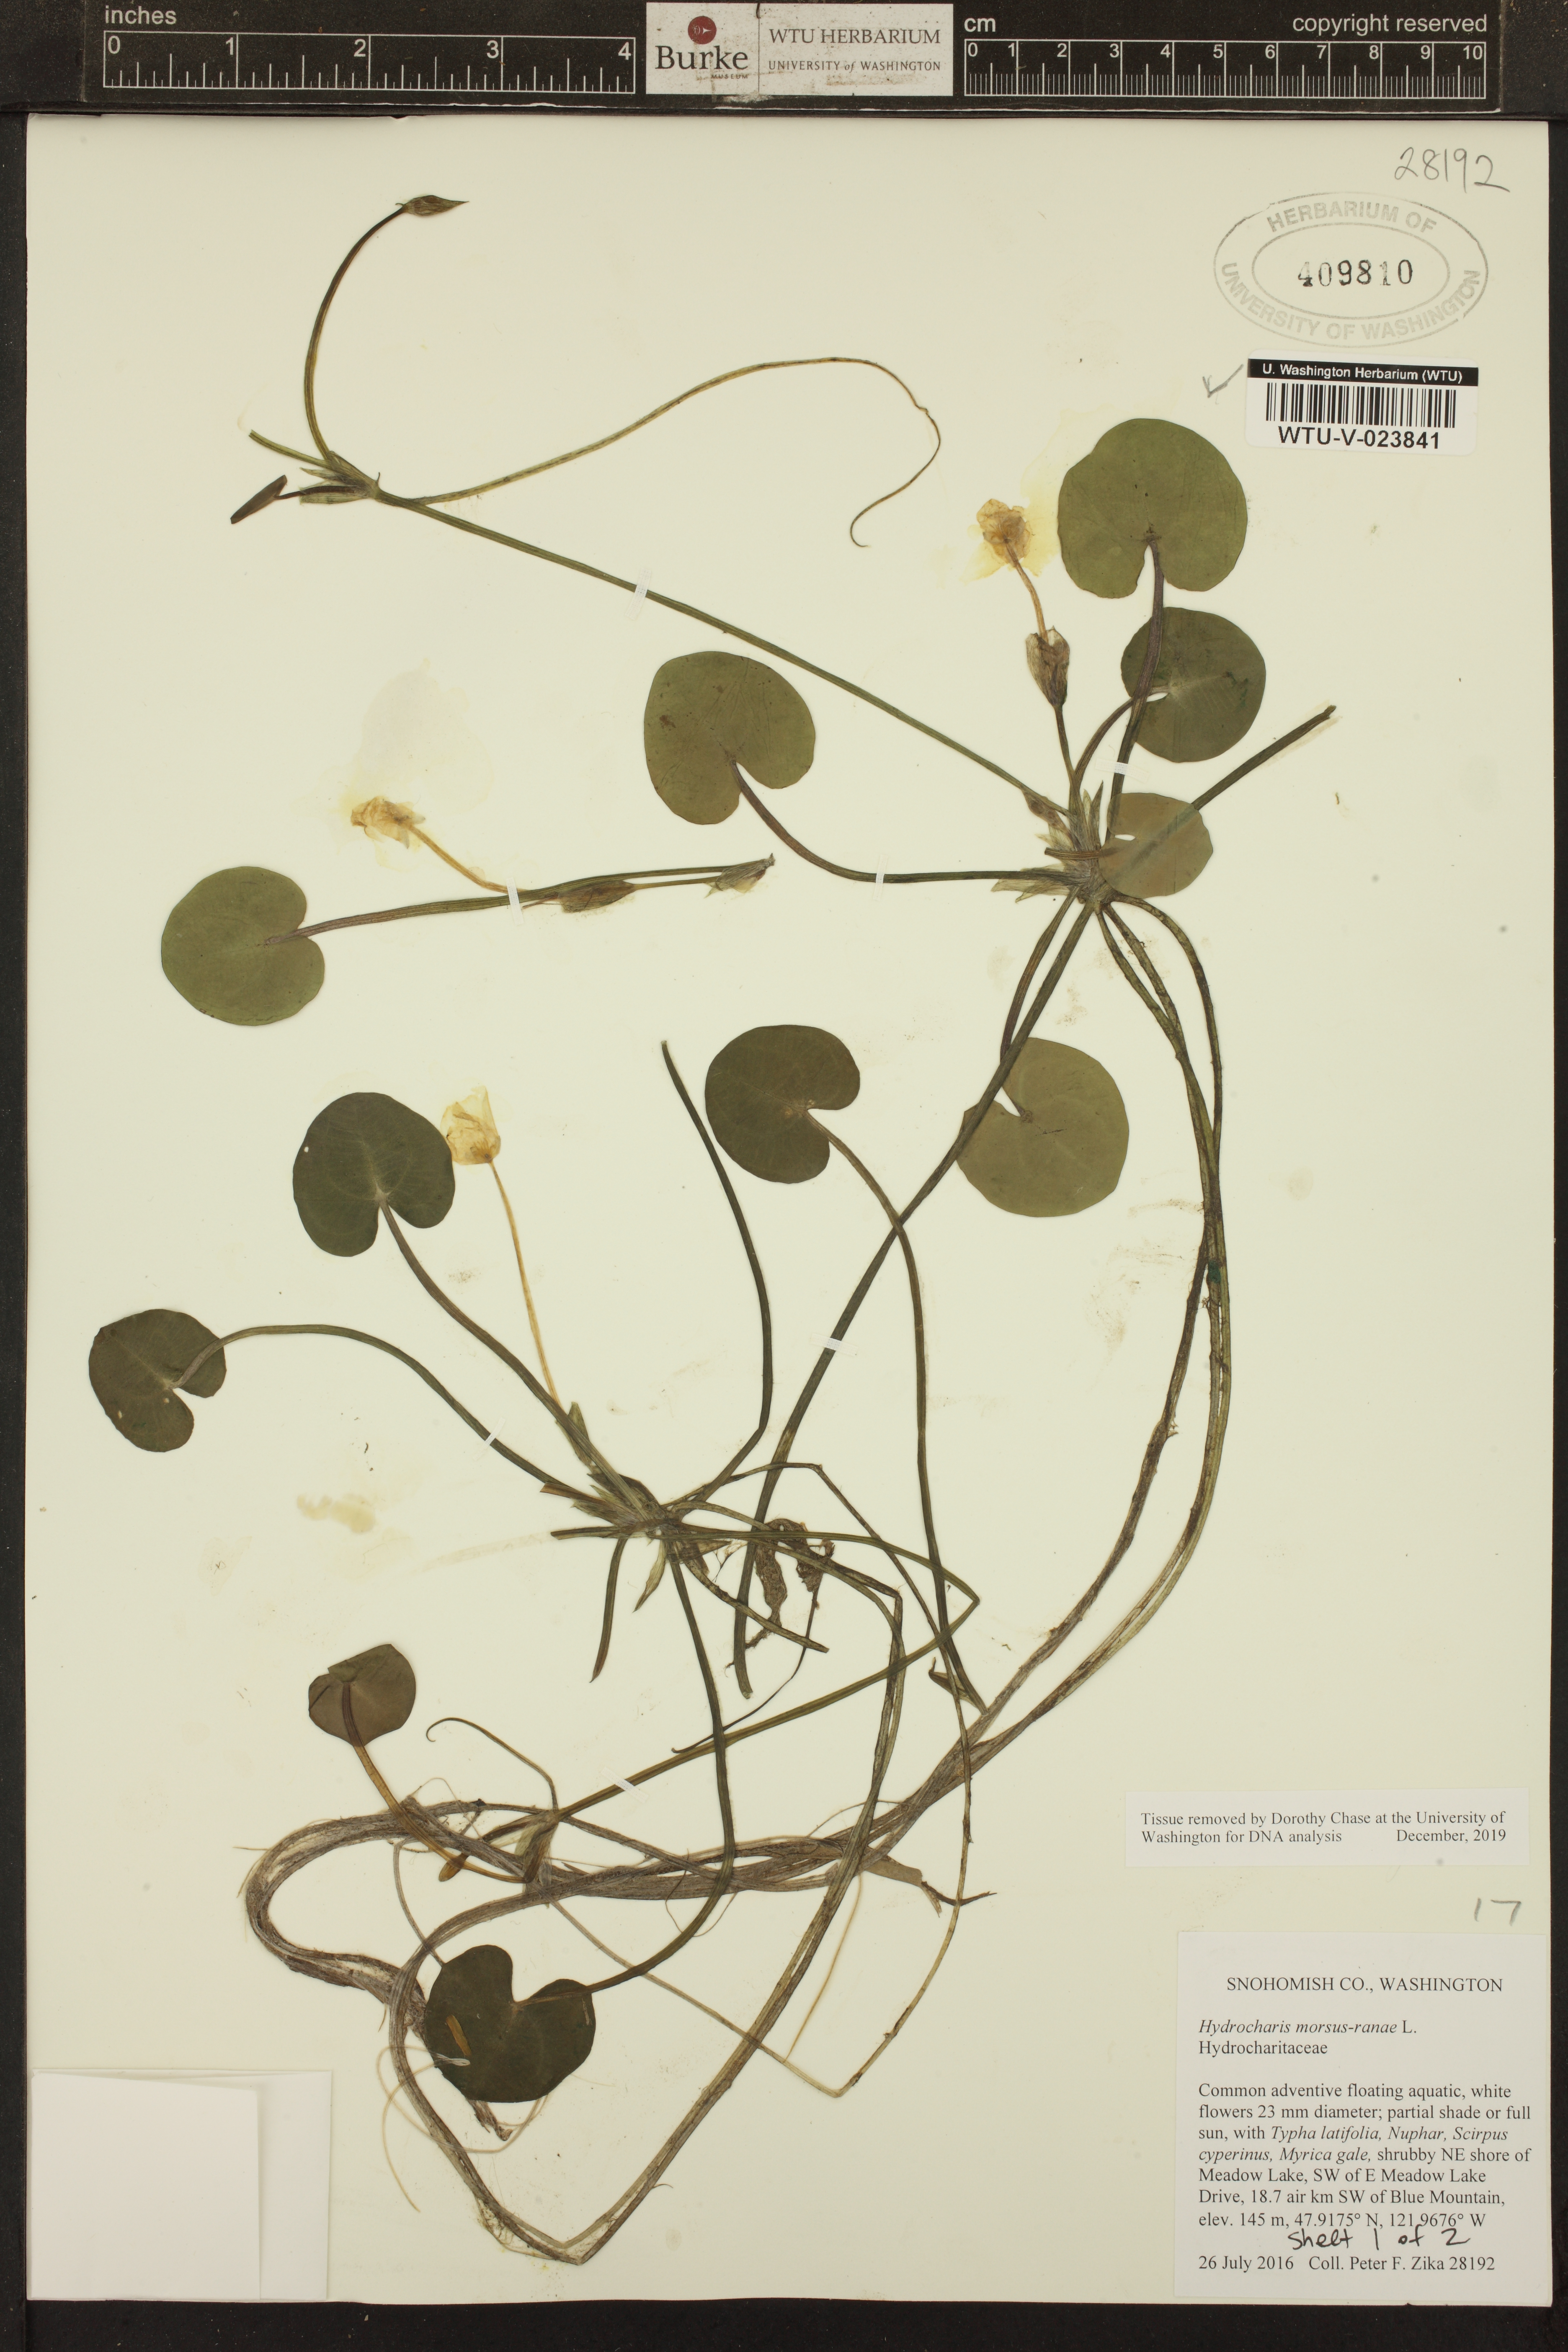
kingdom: Plantae
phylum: Tracheophyta
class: Liliopsida
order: Alismatales
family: Hydrocharitaceae
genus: Hydrocharis
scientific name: Hydrocharis morsus-ranae
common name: European frog-bit
